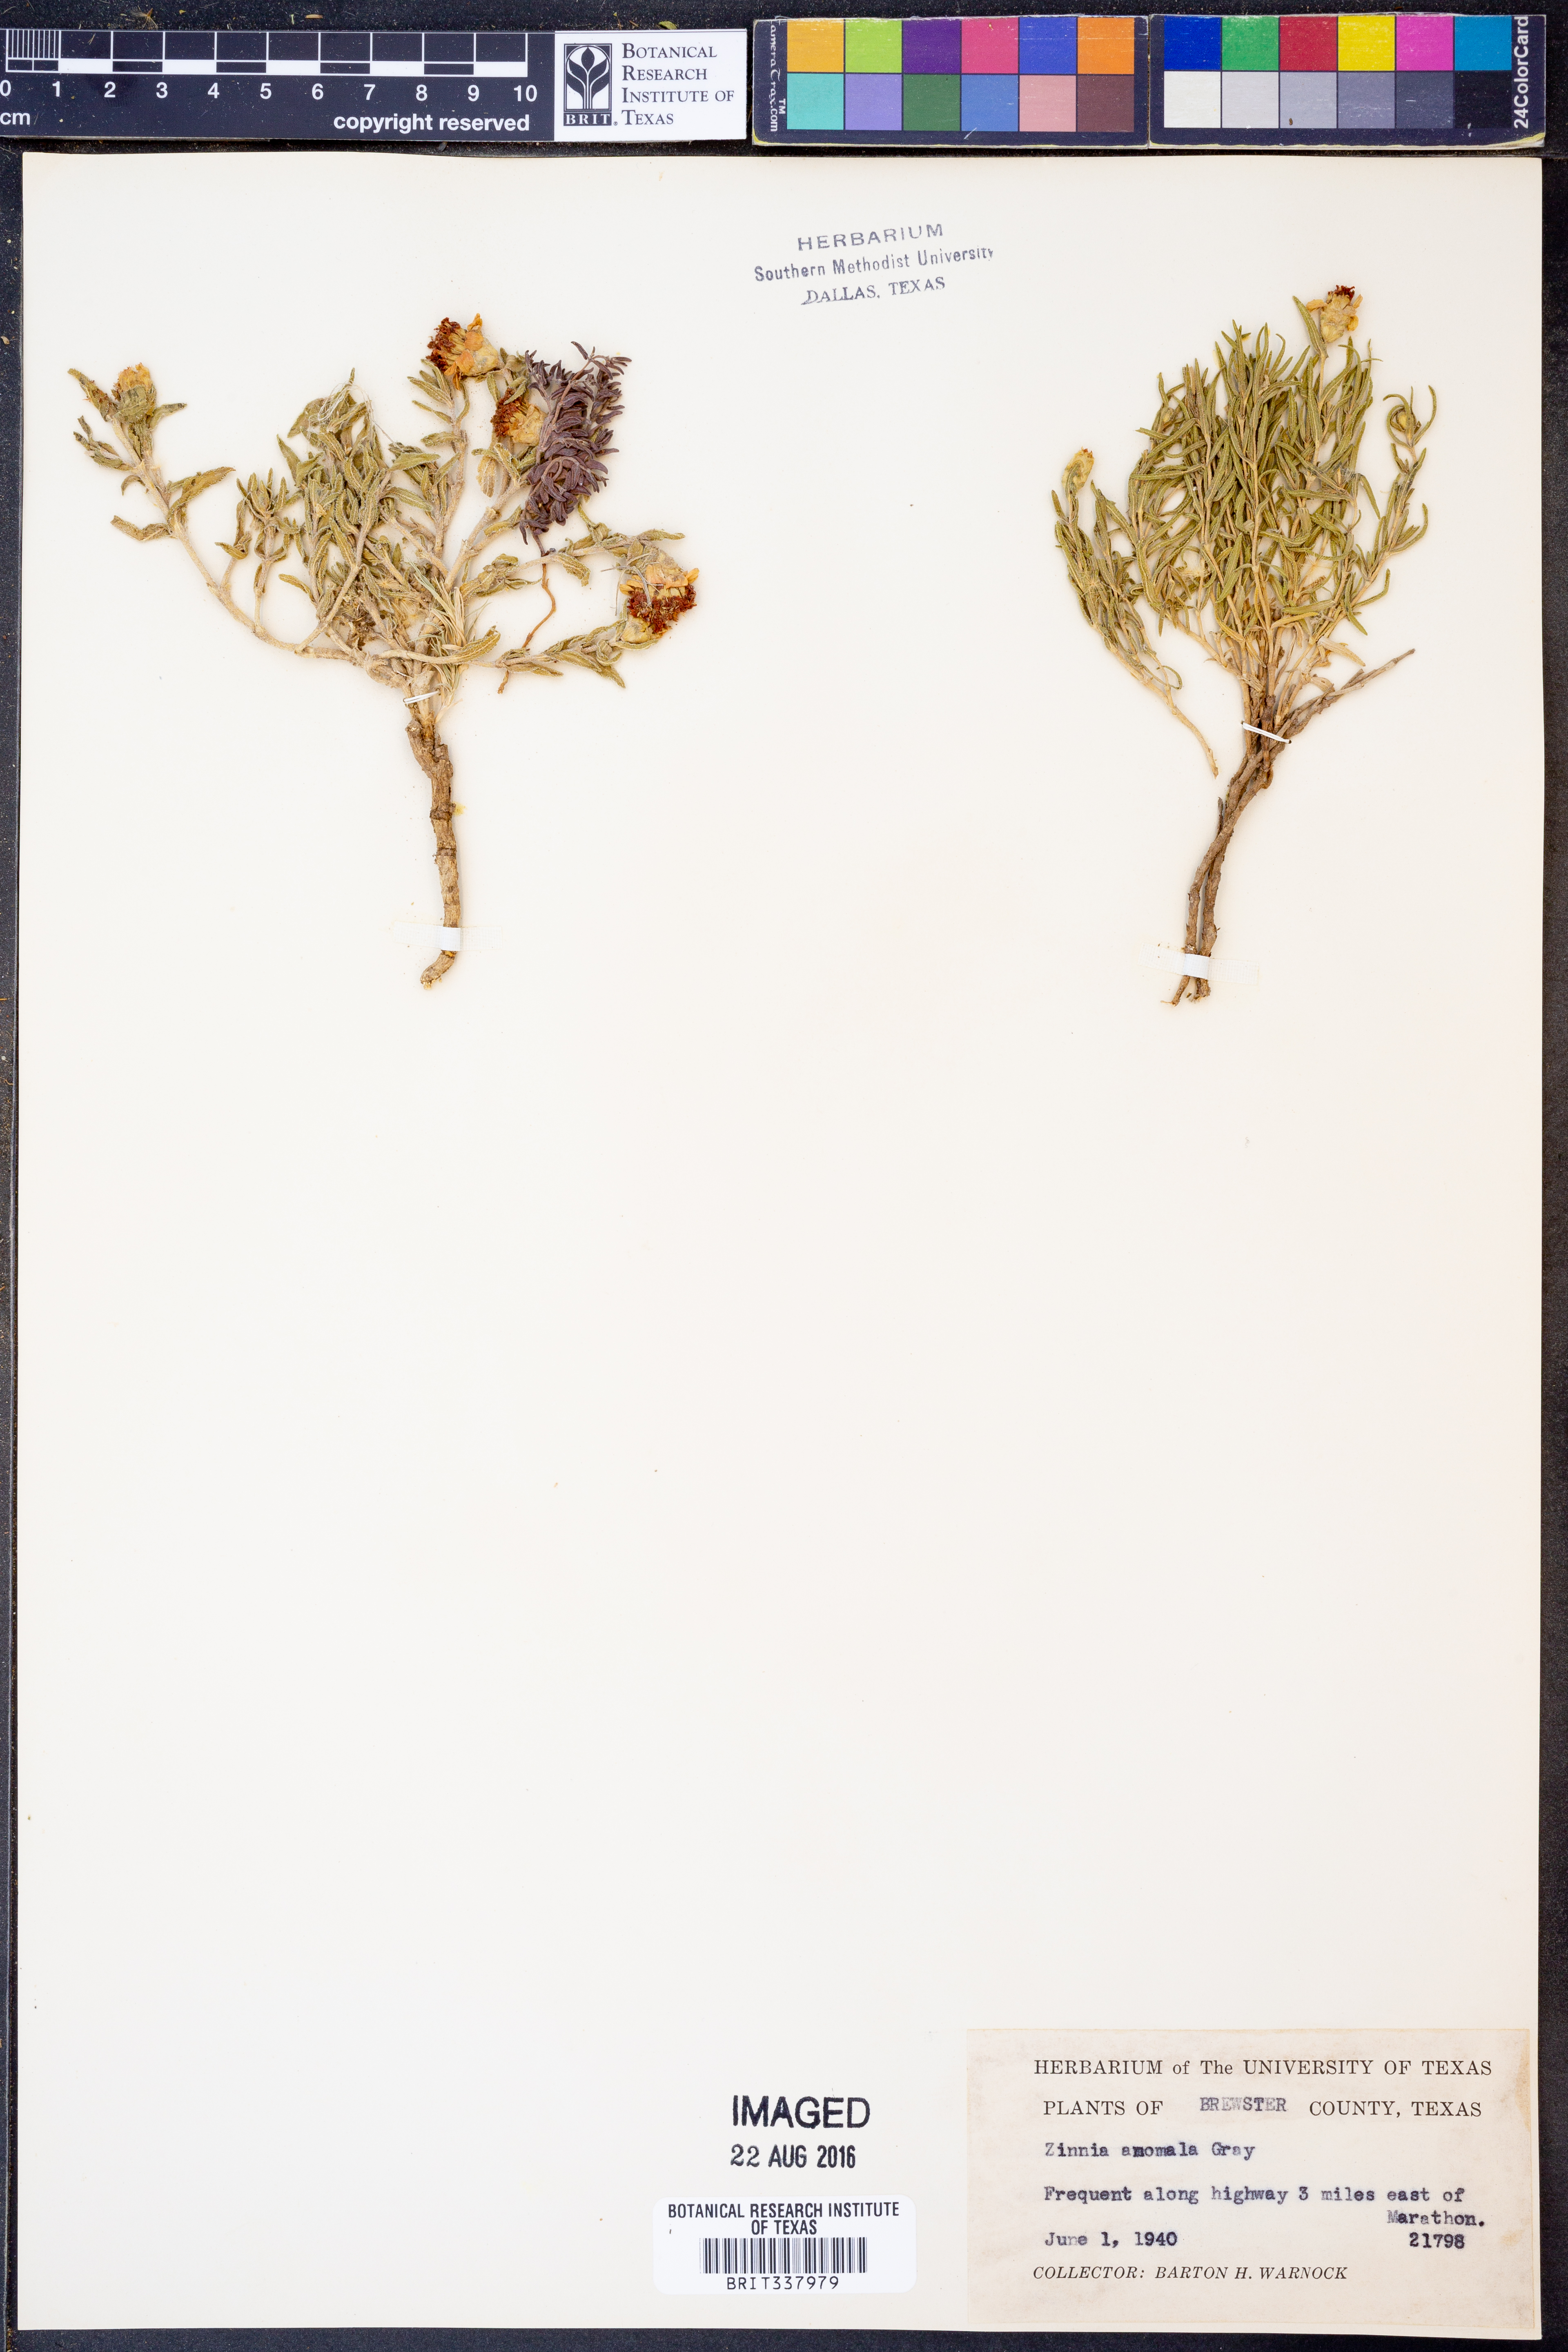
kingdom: Plantae
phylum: Tracheophyta
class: Magnoliopsida
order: Asterales
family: Asteraceae
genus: Zinnia
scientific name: Zinnia anomala
